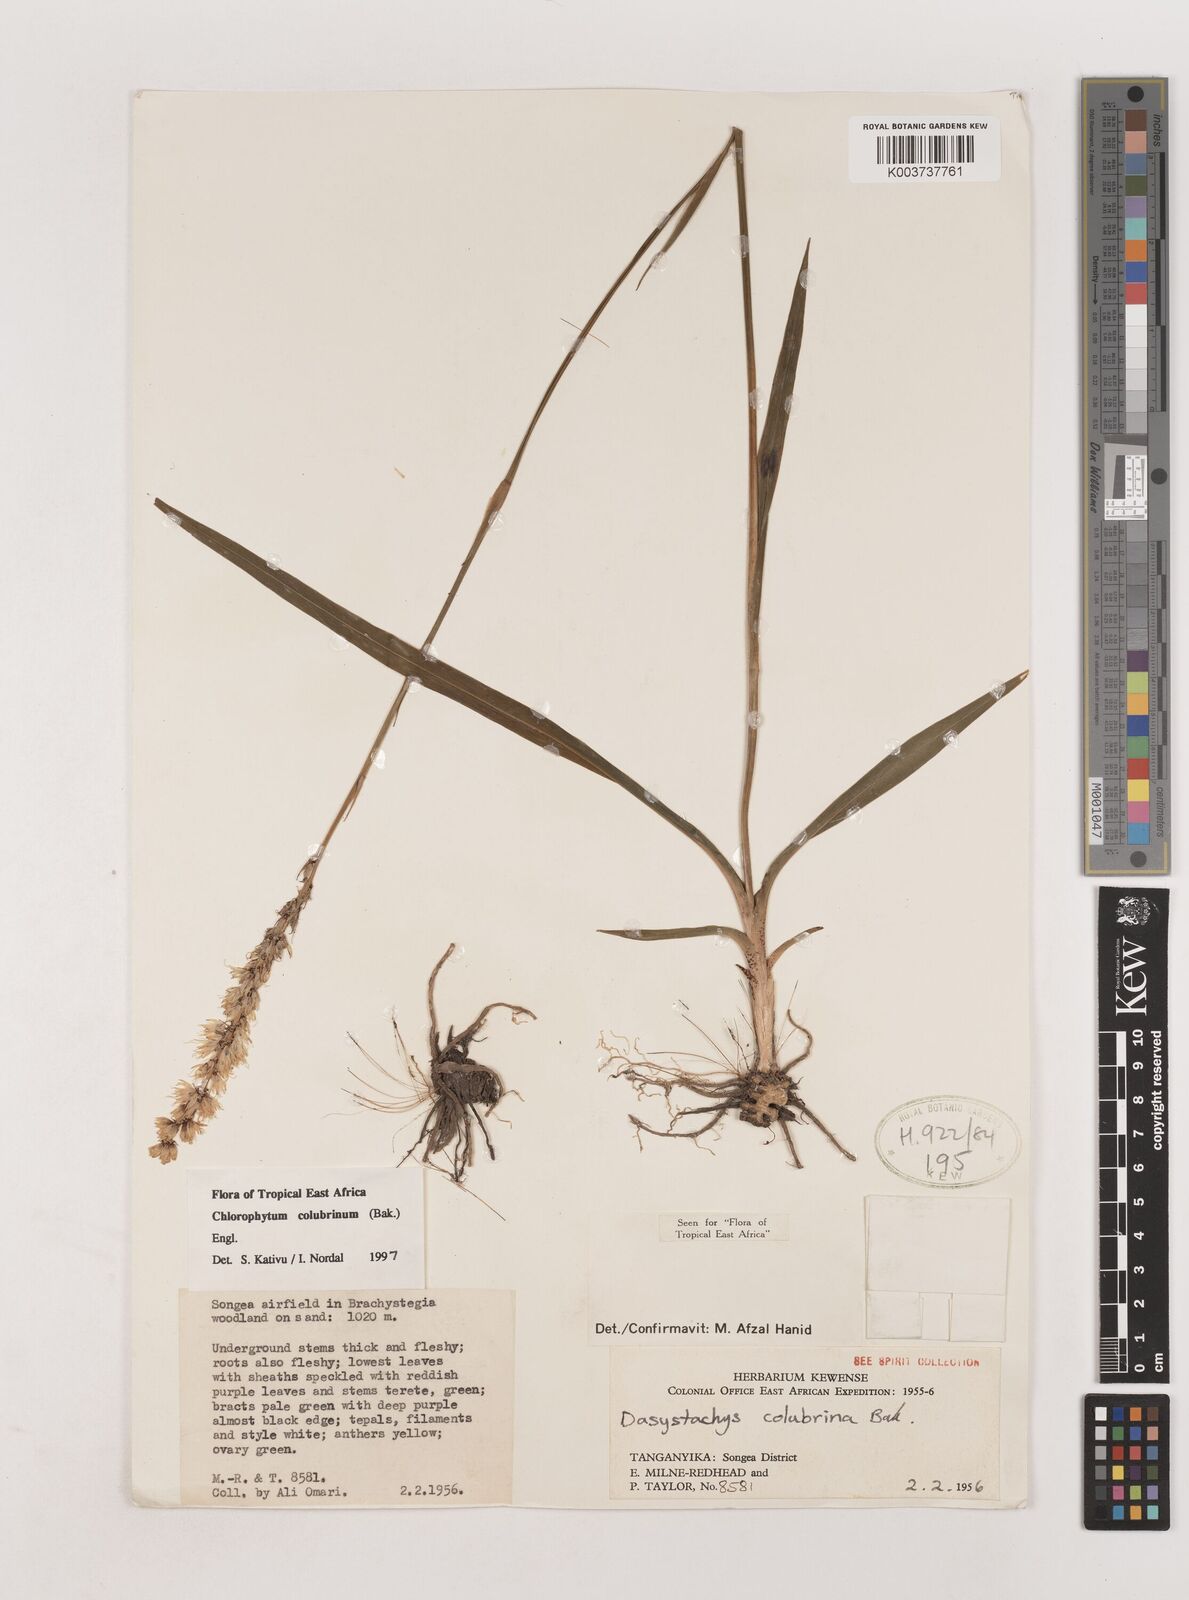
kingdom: Plantae
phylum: Tracheophyta
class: Liliopsida
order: Asparagales
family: Asparagaceae
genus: Chlorophytum
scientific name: Chlorophytum colubrinum
